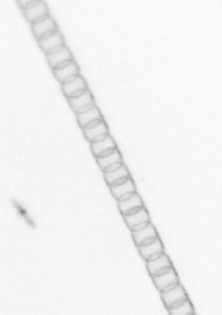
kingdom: Chromista
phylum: Ochrophyta
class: Bacillariophyceae
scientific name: Bacillariophyceae
